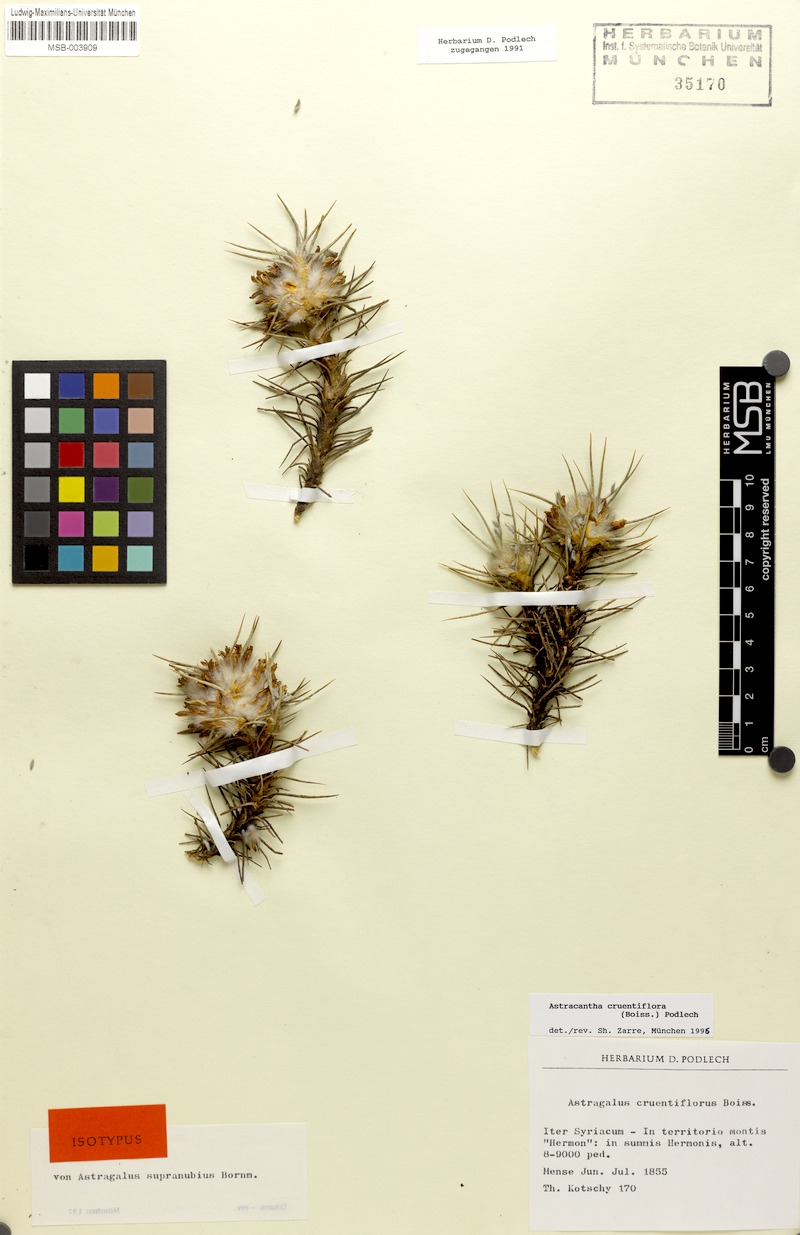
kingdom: Plantae
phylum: Tracheophyta
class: Magnoliopsida
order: Fabales
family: Fabaceae
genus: Astragalus
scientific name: Astragalus cruentiflorus
